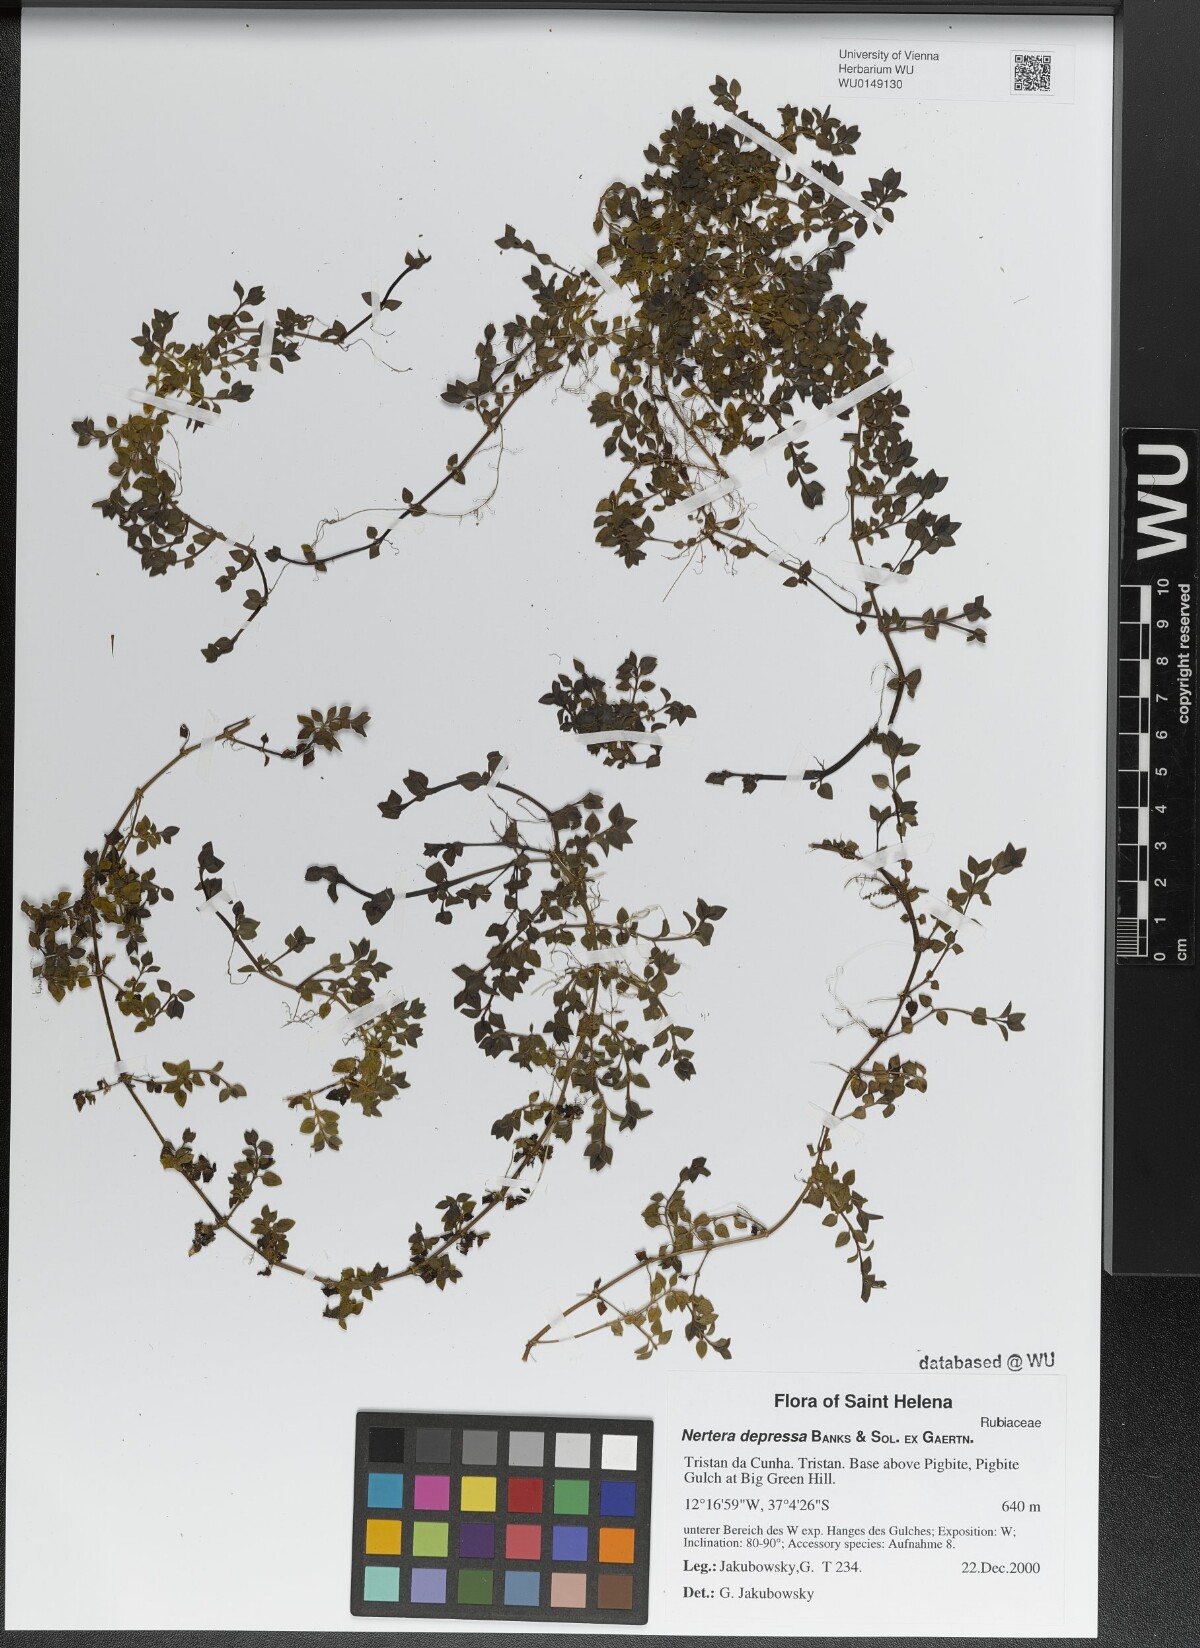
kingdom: Plantae
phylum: Tracheophyta
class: Magnoliopsida
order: Gentianales
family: Rubiaceae
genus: Nertera
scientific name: Nertera granadensis
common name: Beadplant
